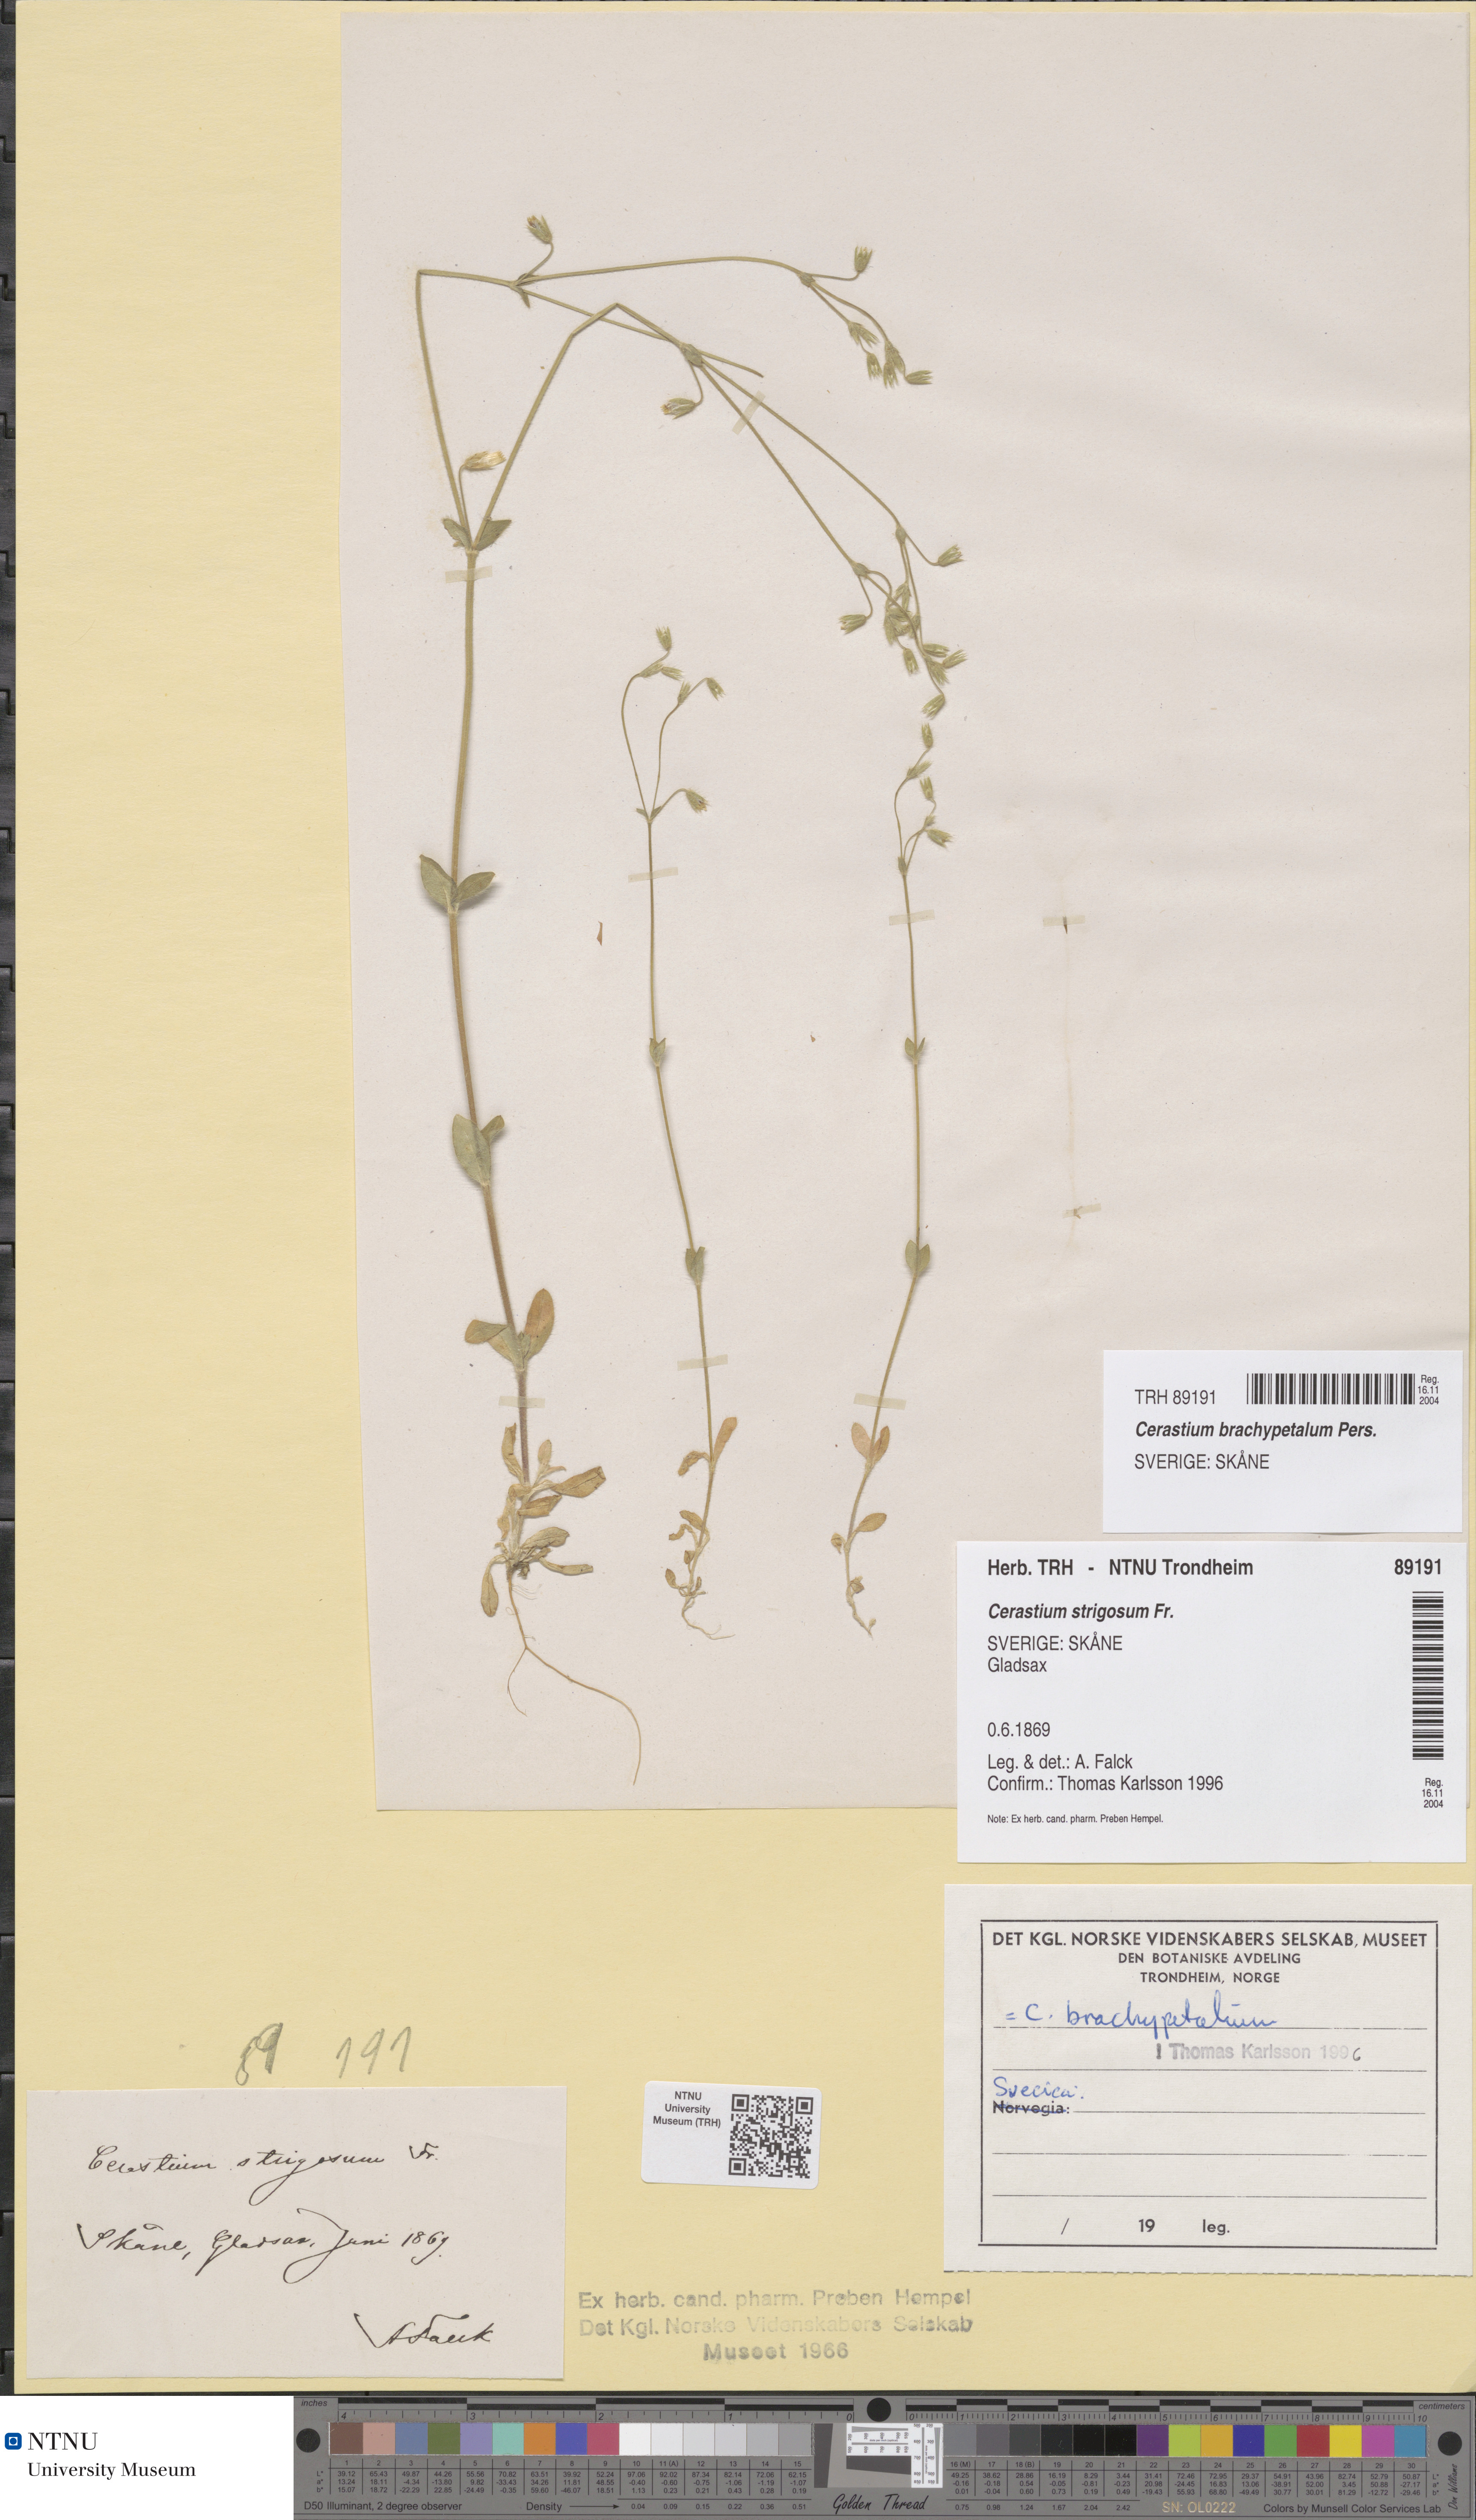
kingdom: Plantae
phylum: Tracheophyta
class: Magnoliopsida
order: Caryophyllales
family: Caryophyllaceae
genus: Cerastium
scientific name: Cerastium brachypetalum
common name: Grey mouse-ear
